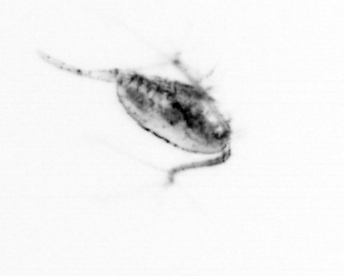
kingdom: Animalia
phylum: Arthropoda
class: Copepoda
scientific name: Copepoda
